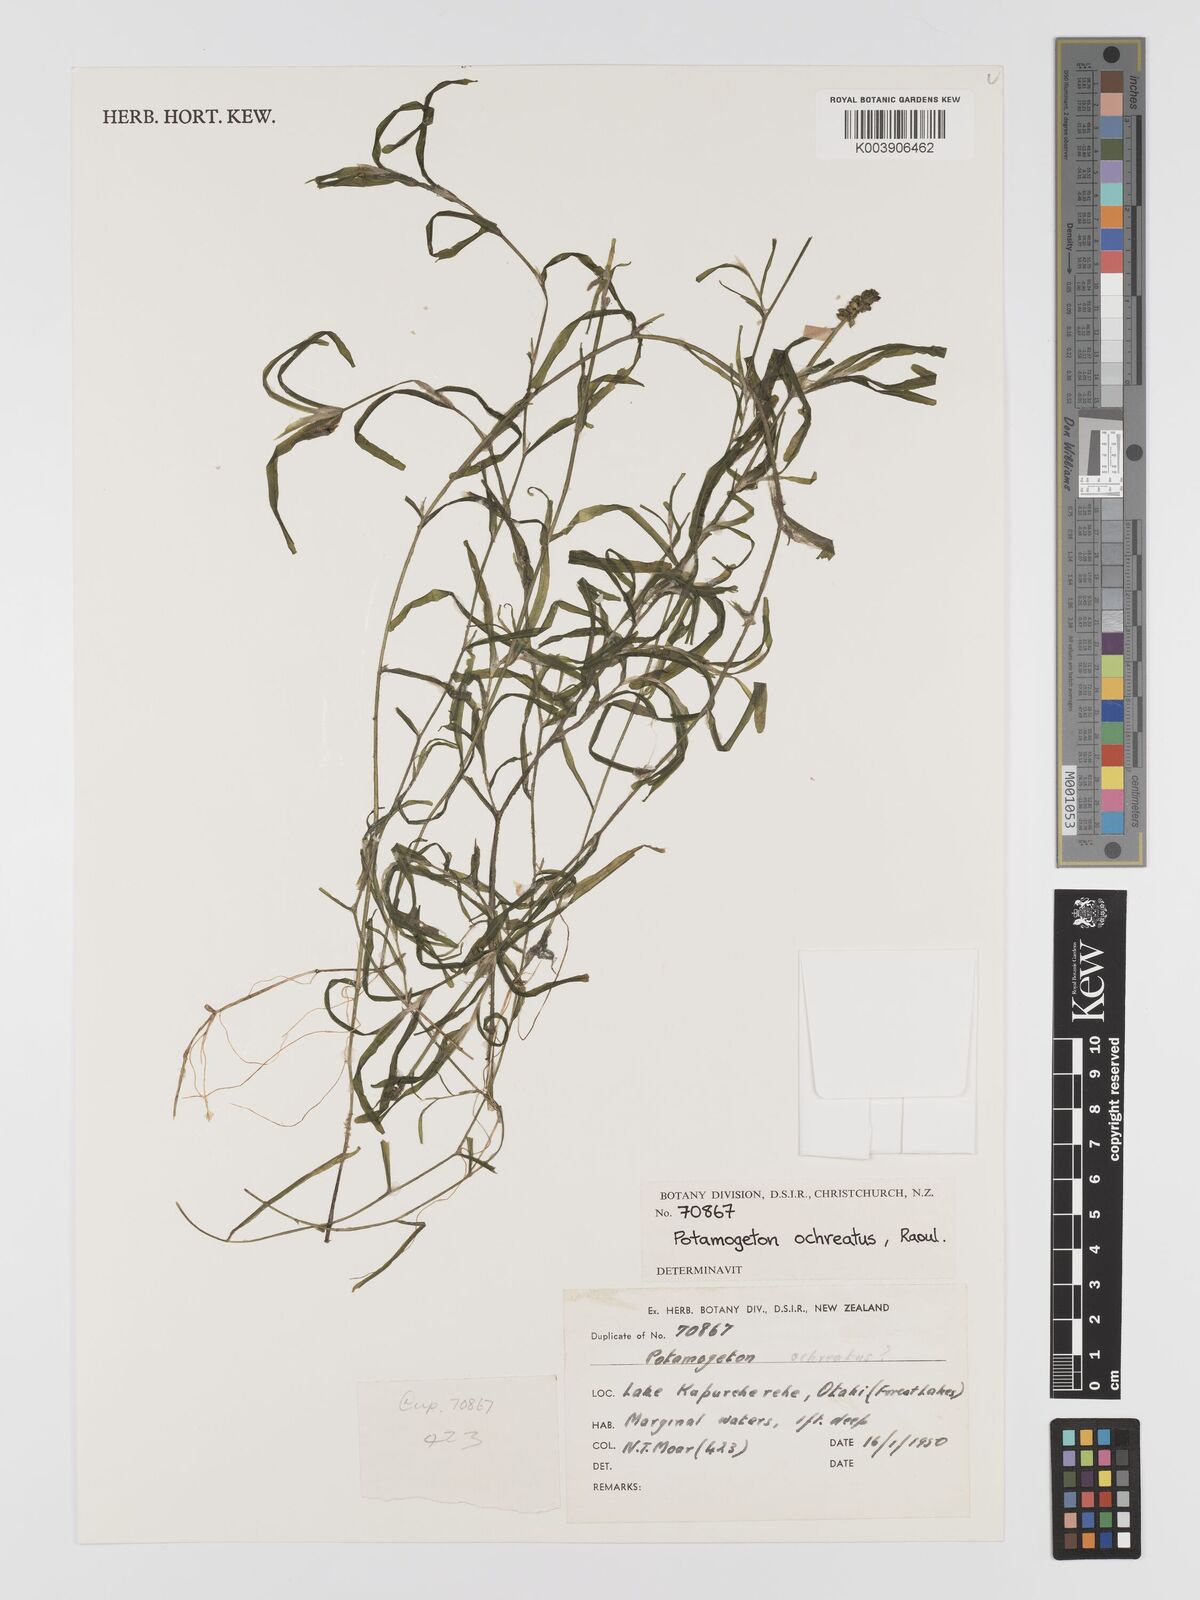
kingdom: Plantae
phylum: Tracheophyta
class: Liliopsida
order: Alismatales
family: Potamogetonaceae
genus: Potamogeton
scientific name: Potamogeton ochreatus
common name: Blunt pondweed
